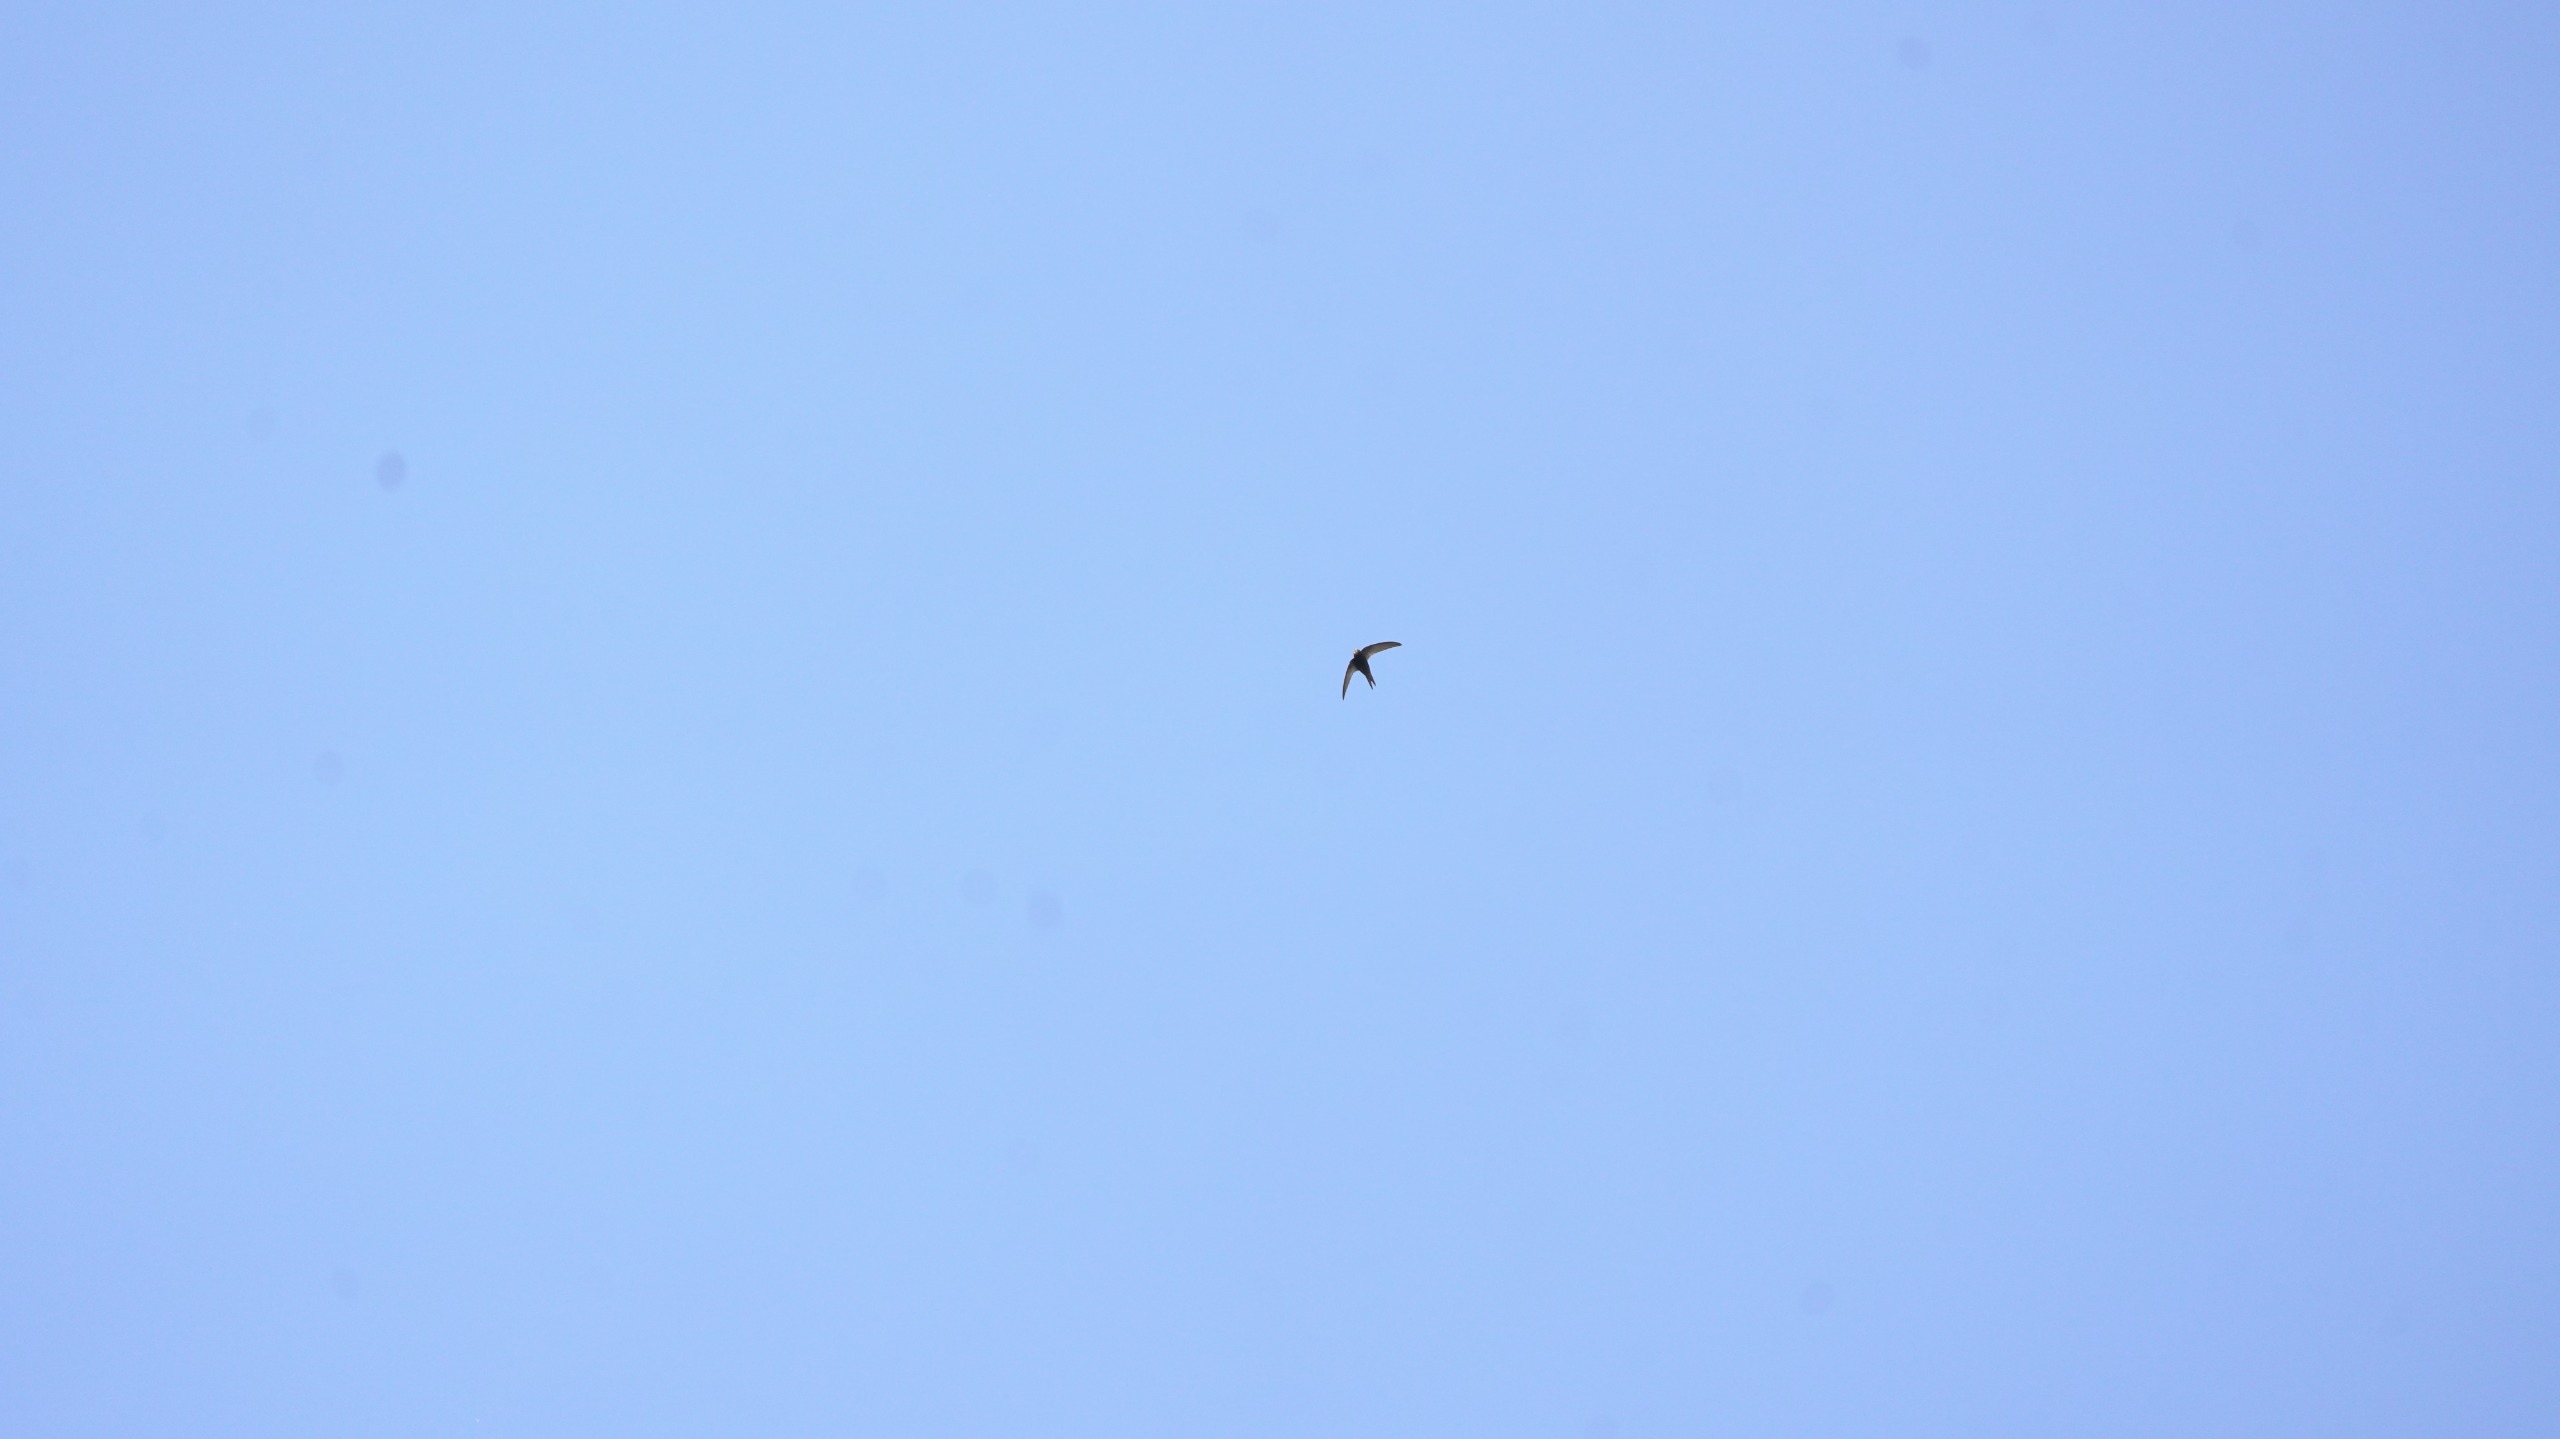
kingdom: Animalia
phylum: Chordata
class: Aves
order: Apodiformes
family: Apodidae
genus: Apus
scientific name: Apus apus
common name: Mursejler
